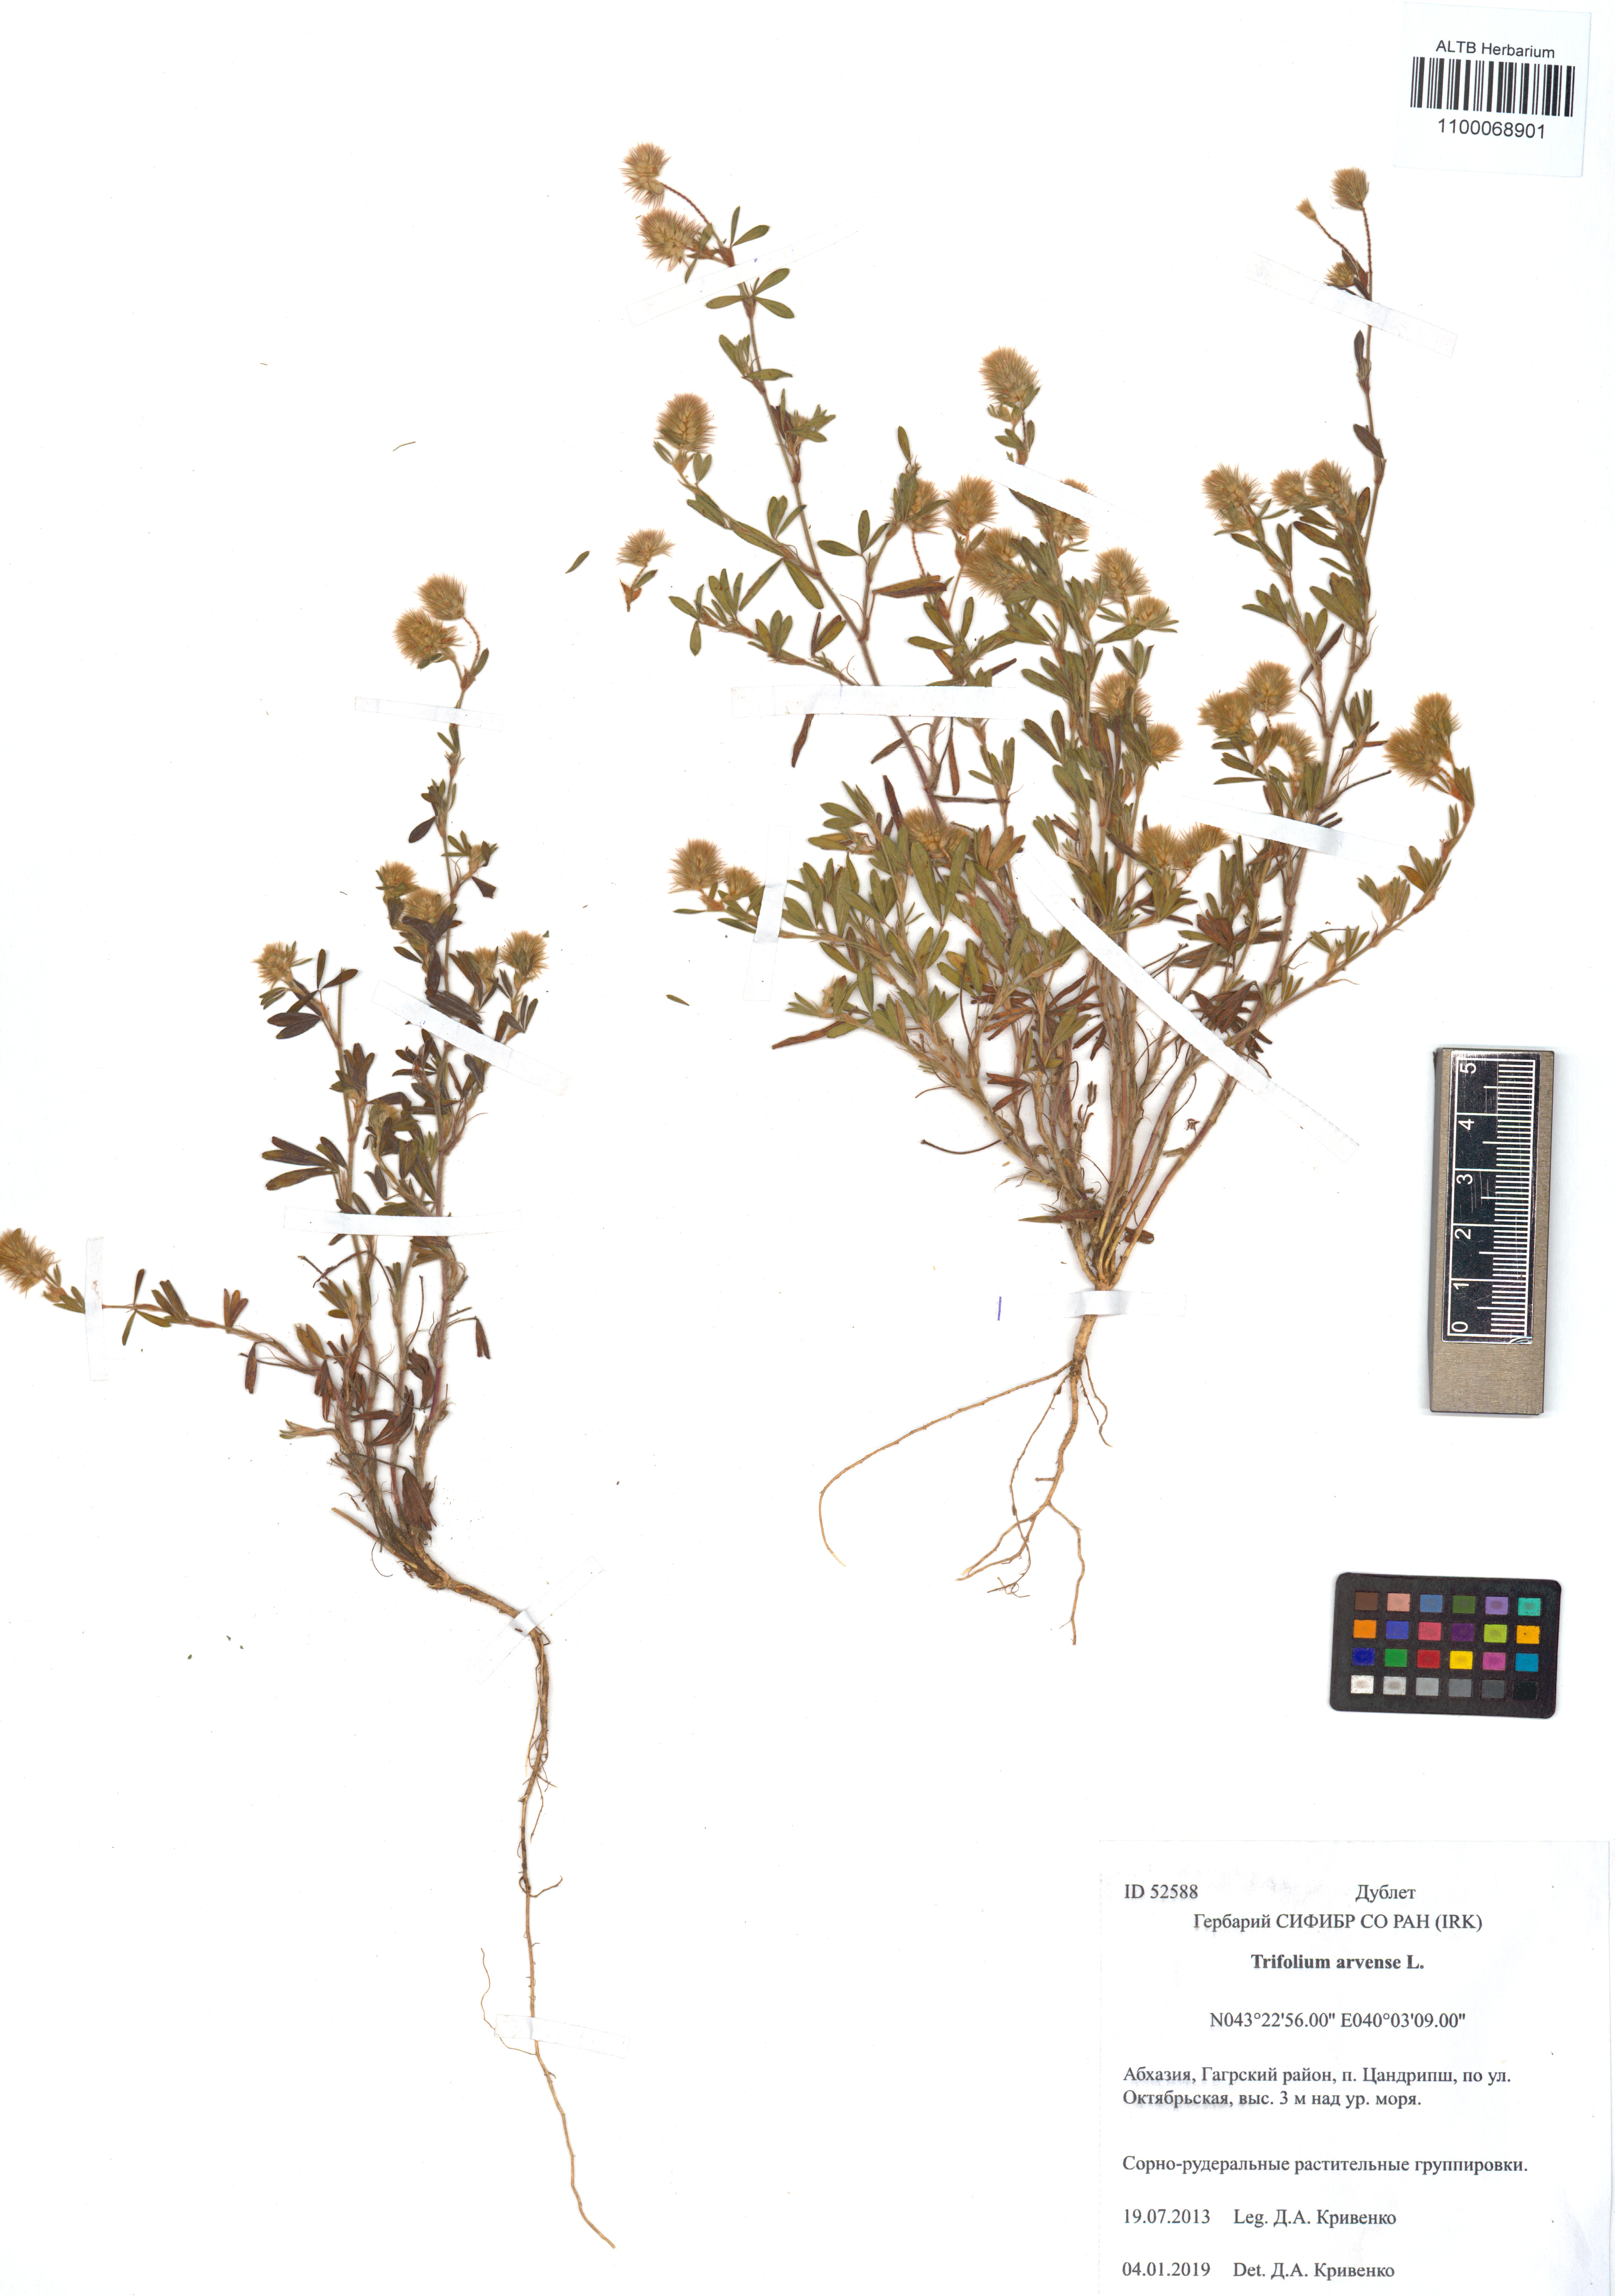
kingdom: Plantae
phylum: Tracheophyta
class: Magnoliopsida
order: Fabales
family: Fabaceae
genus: Trifolium
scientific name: Trifolium arvense
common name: Hare's-foot clover
